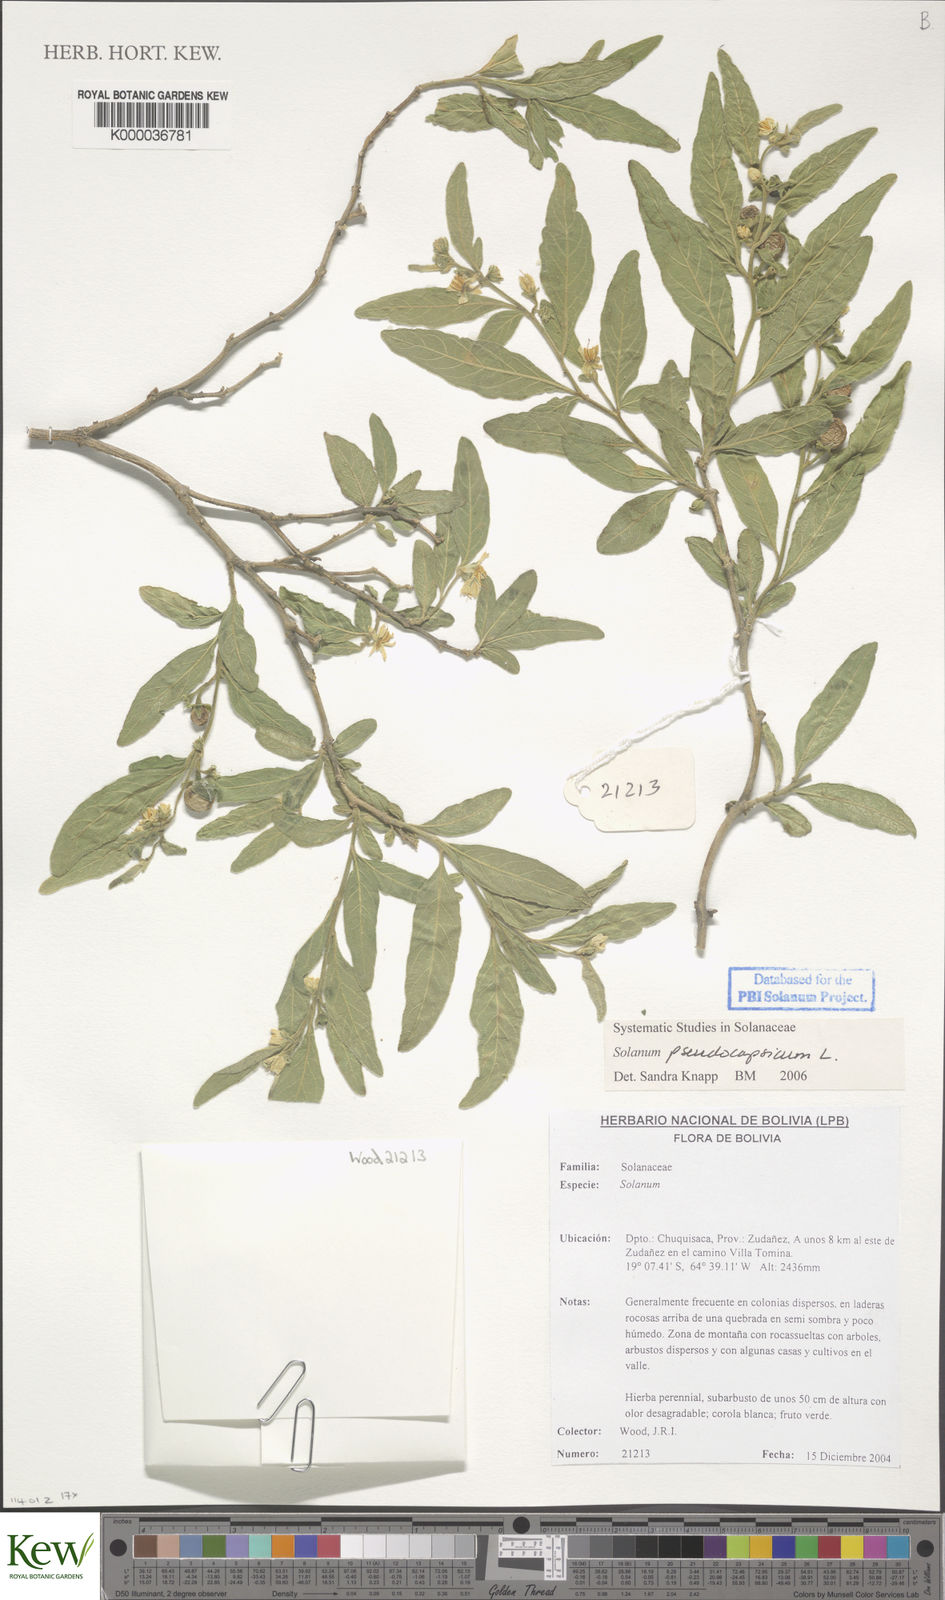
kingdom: Plantae
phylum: Tracheophyta
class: Magnoliopsida
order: Solanales
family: Solanaceae
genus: Solanum
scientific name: Solanum pseudocapsicum
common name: Jerusalem cherry
